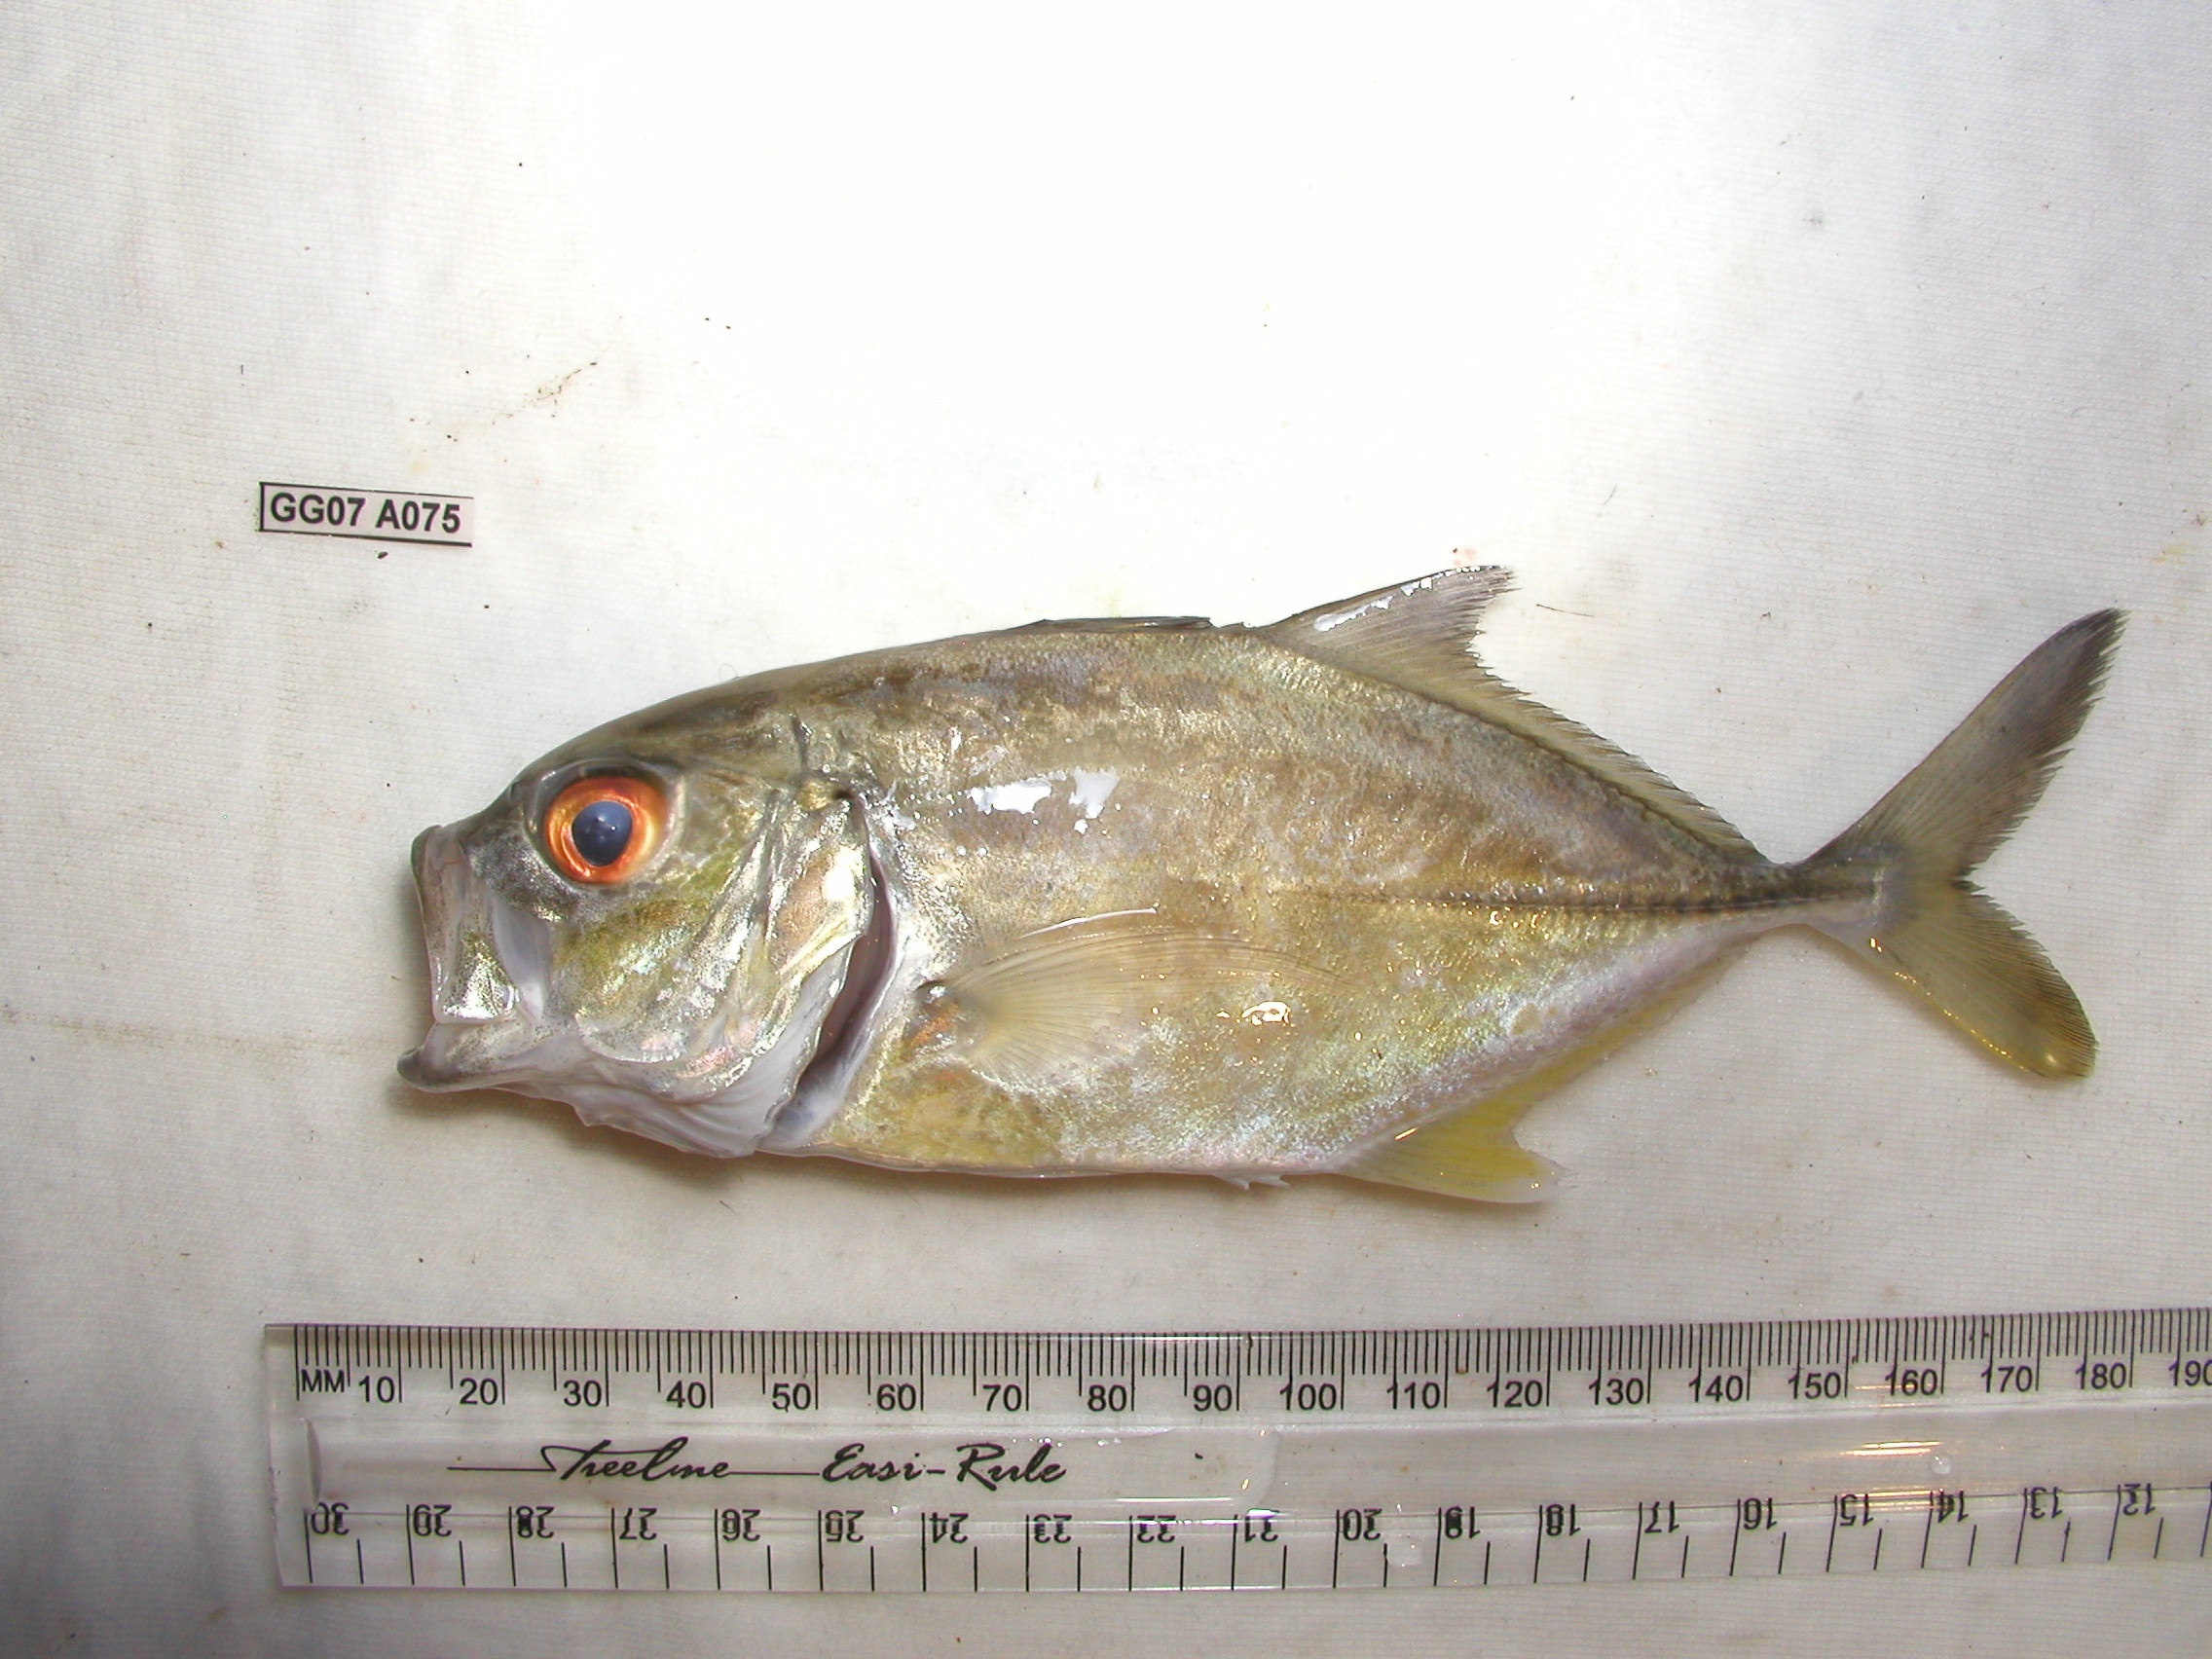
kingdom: Animalia
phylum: Chordata
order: Perciformes
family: Carangidae
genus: Caranx
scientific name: Caranx papuensis
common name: Brassy trevally
